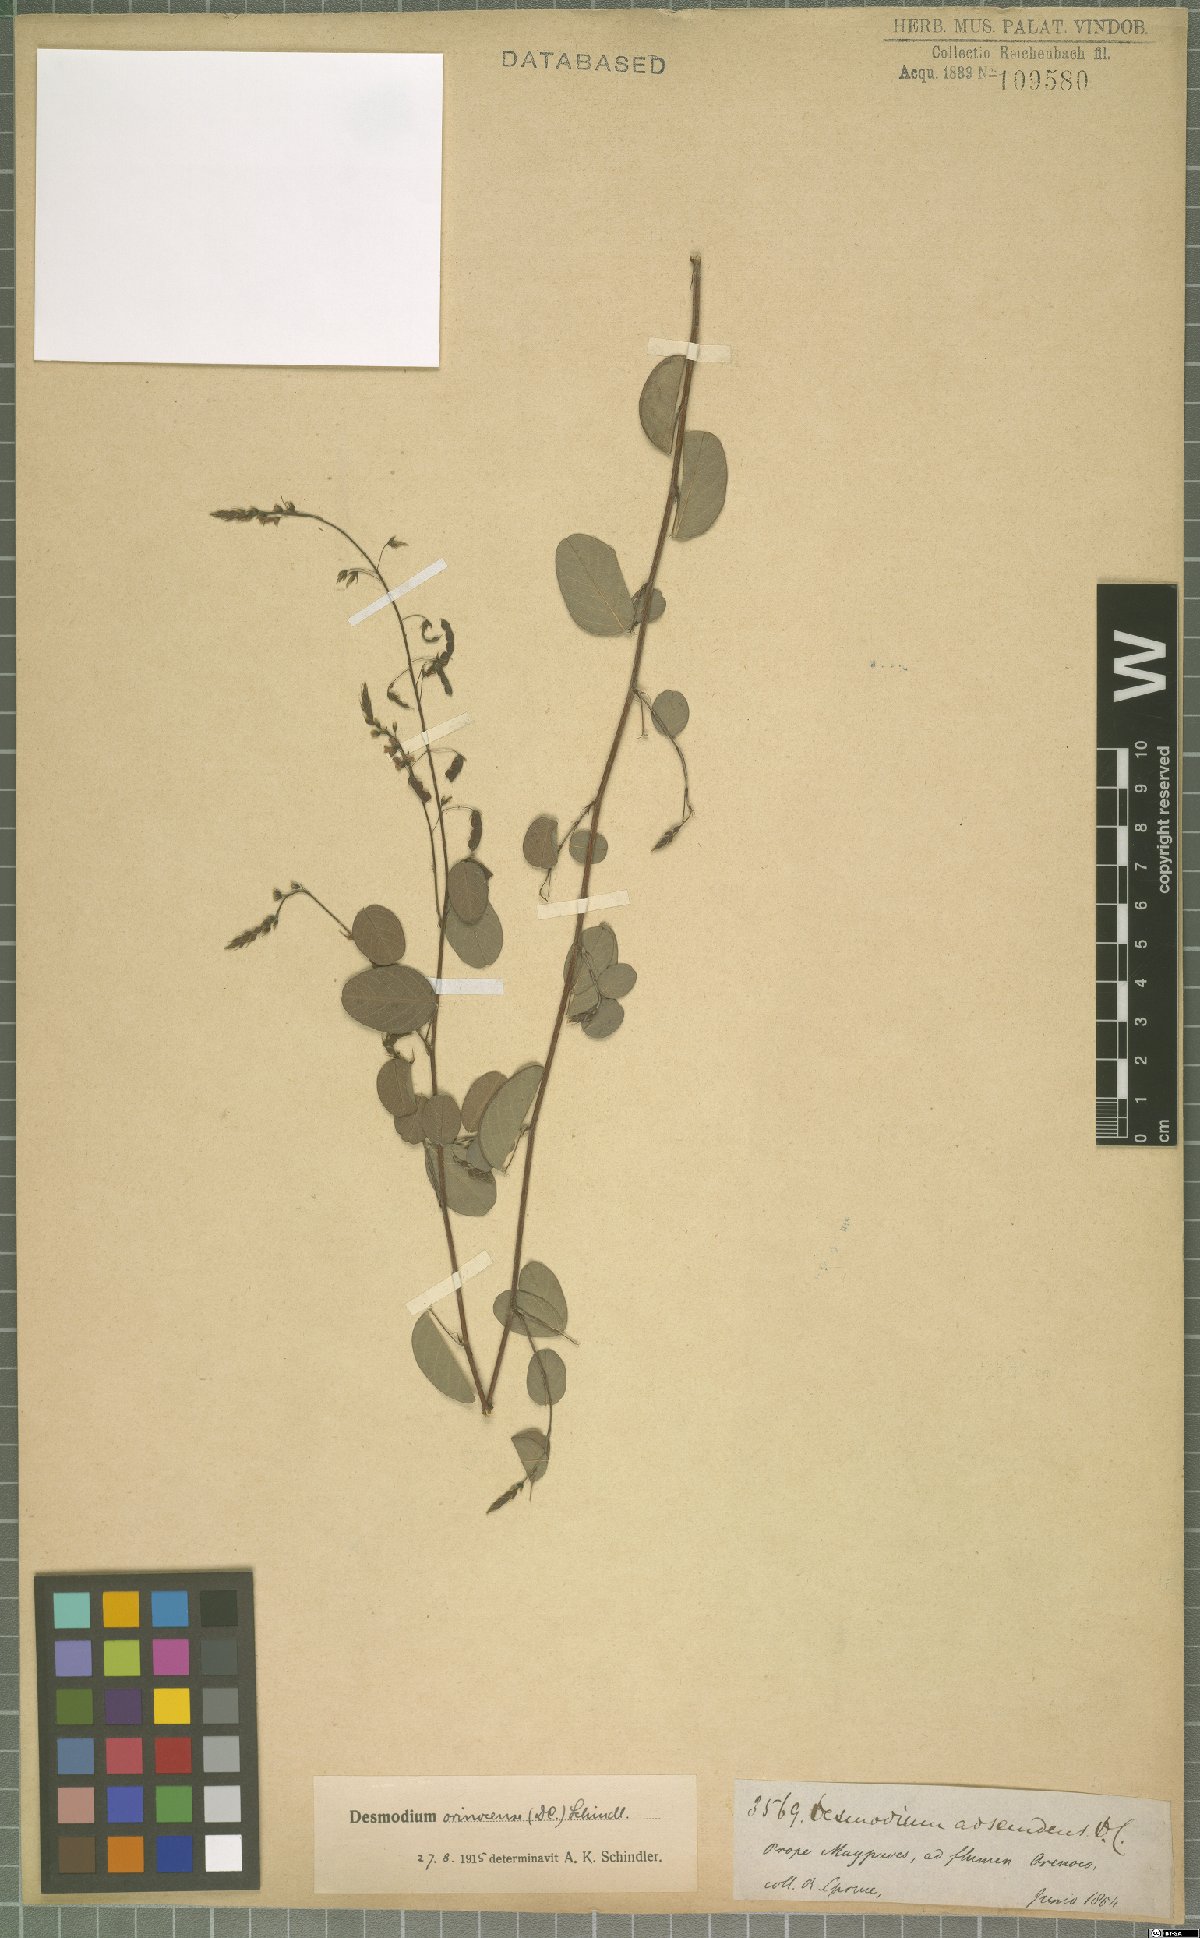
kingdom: Plantae
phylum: Tracheophyta
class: Magnoliopsida
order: Fabales
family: Fabaceae
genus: Grona
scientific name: Grona orinocensis
